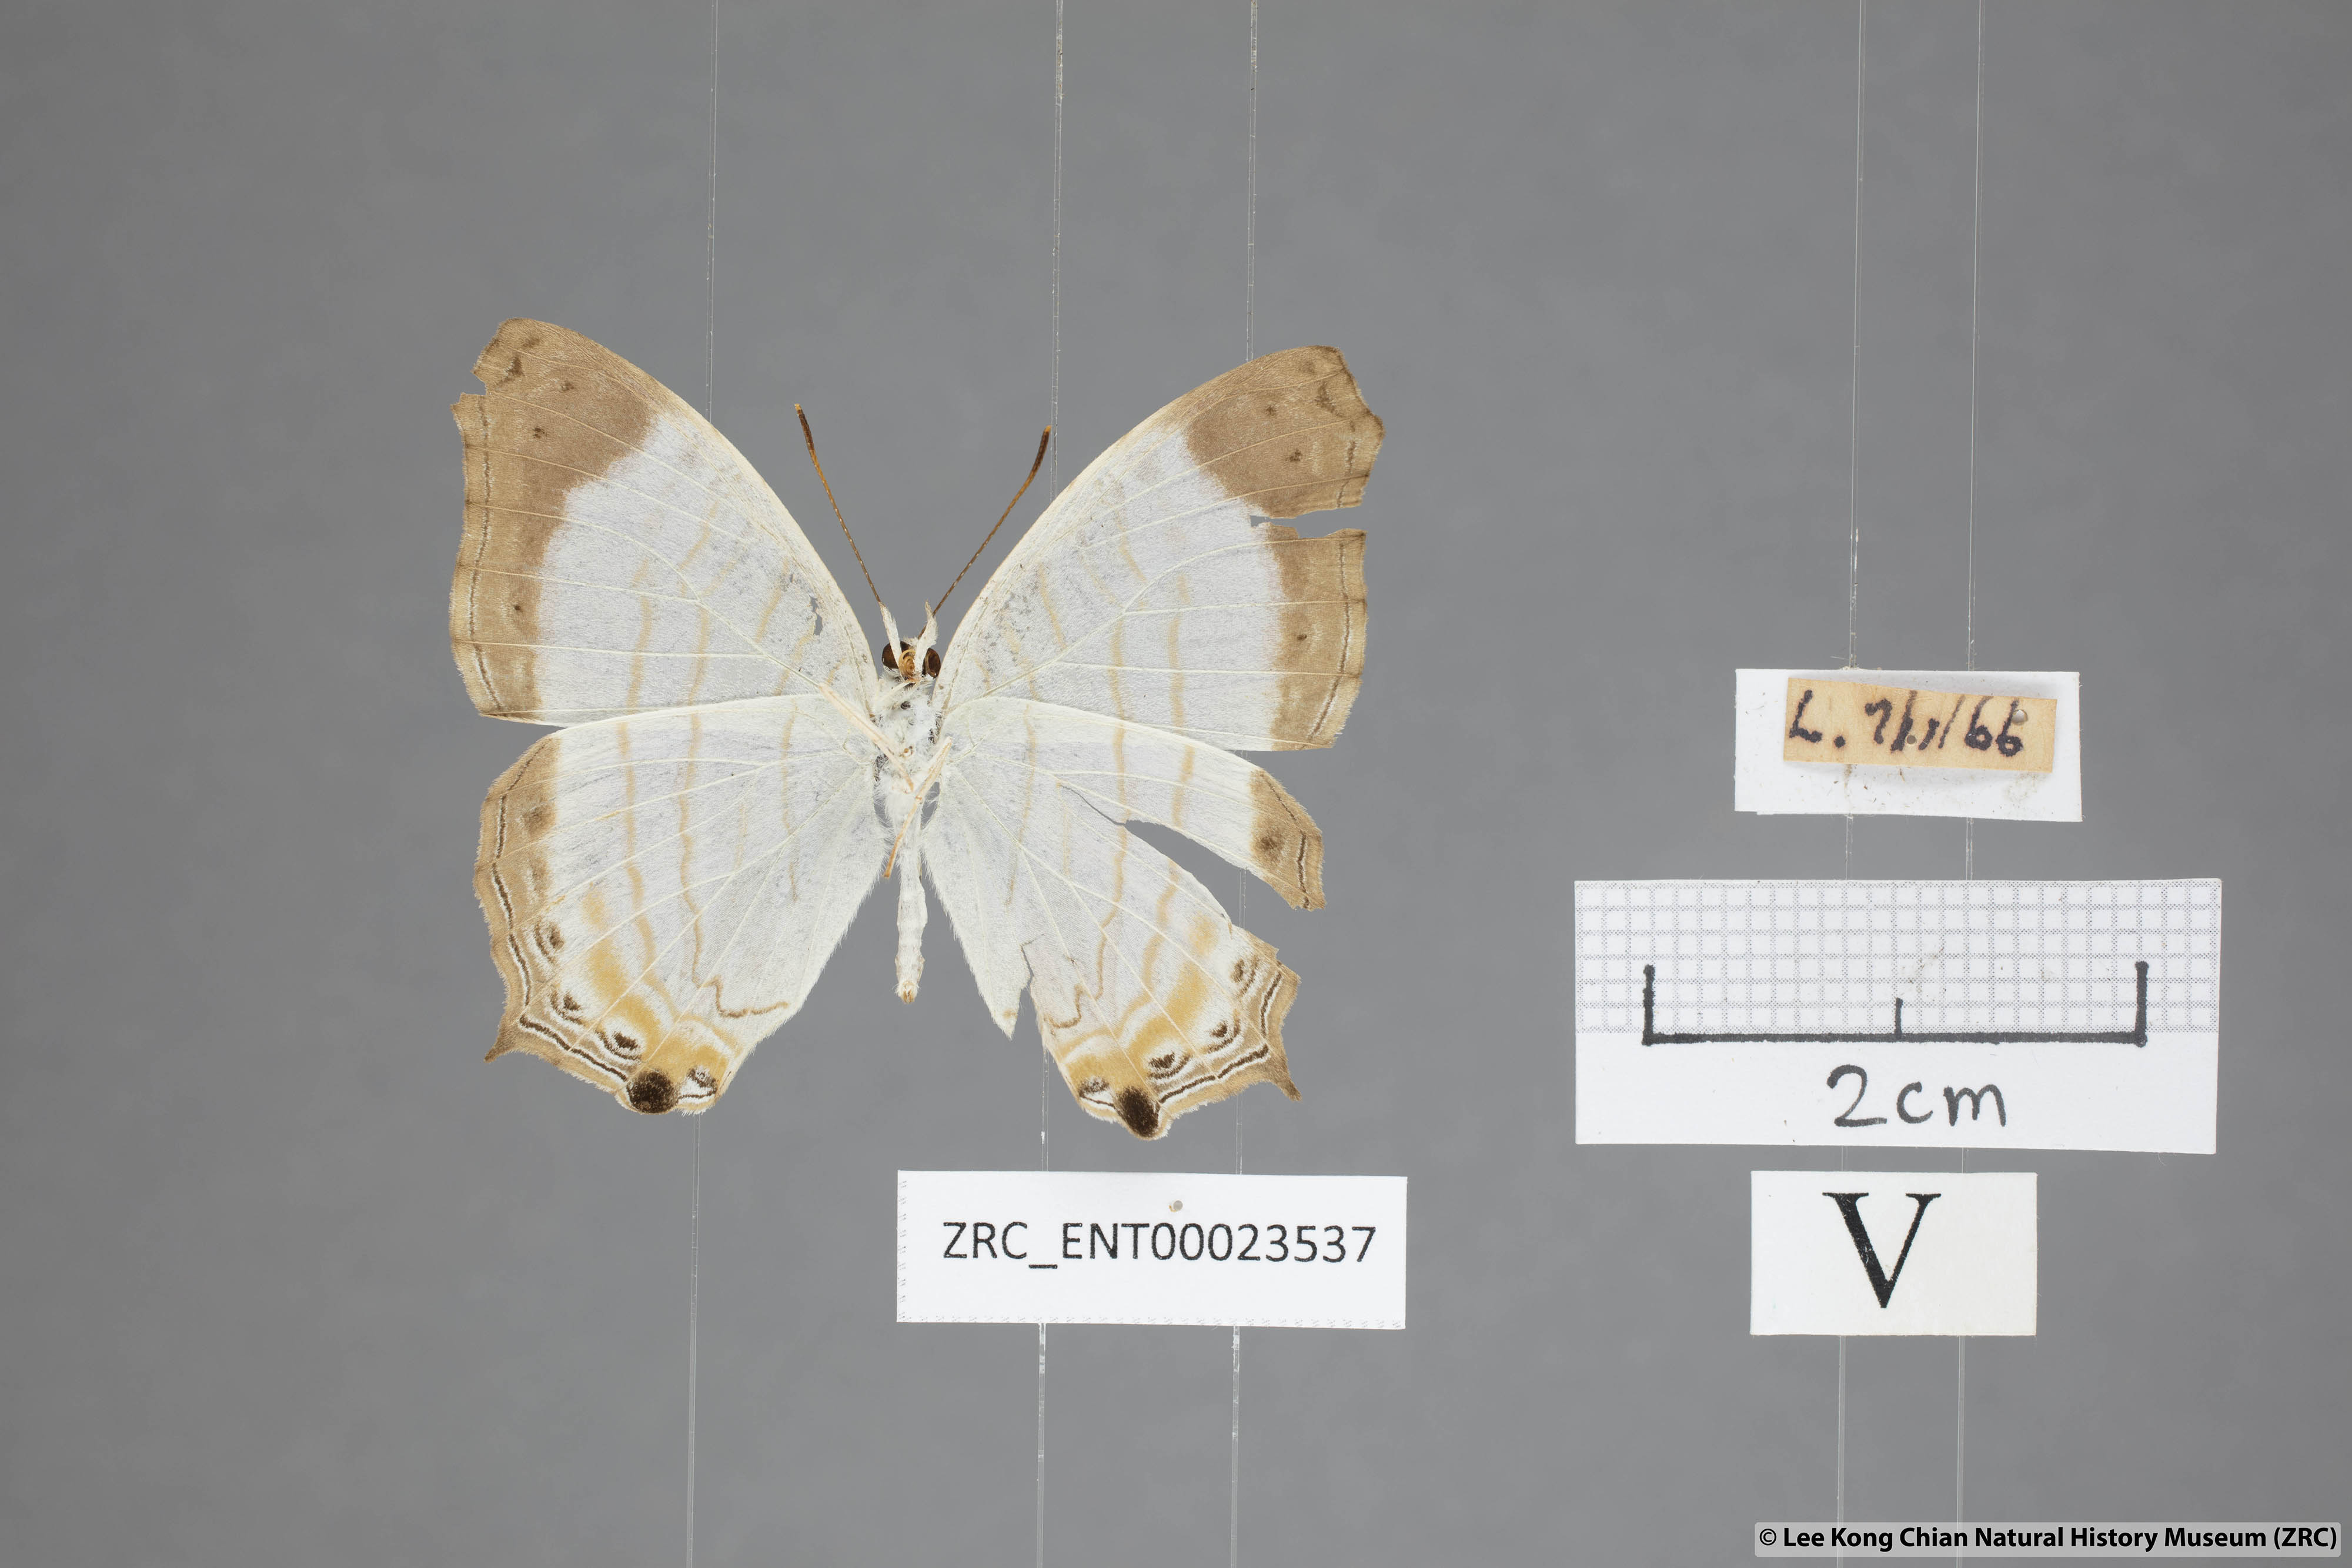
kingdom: Animalia
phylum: Arthropoda
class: Insecta
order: Lepidoptera
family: Nymphalidae
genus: Cyrestis
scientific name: Cyrestis themire
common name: Little mapwing
